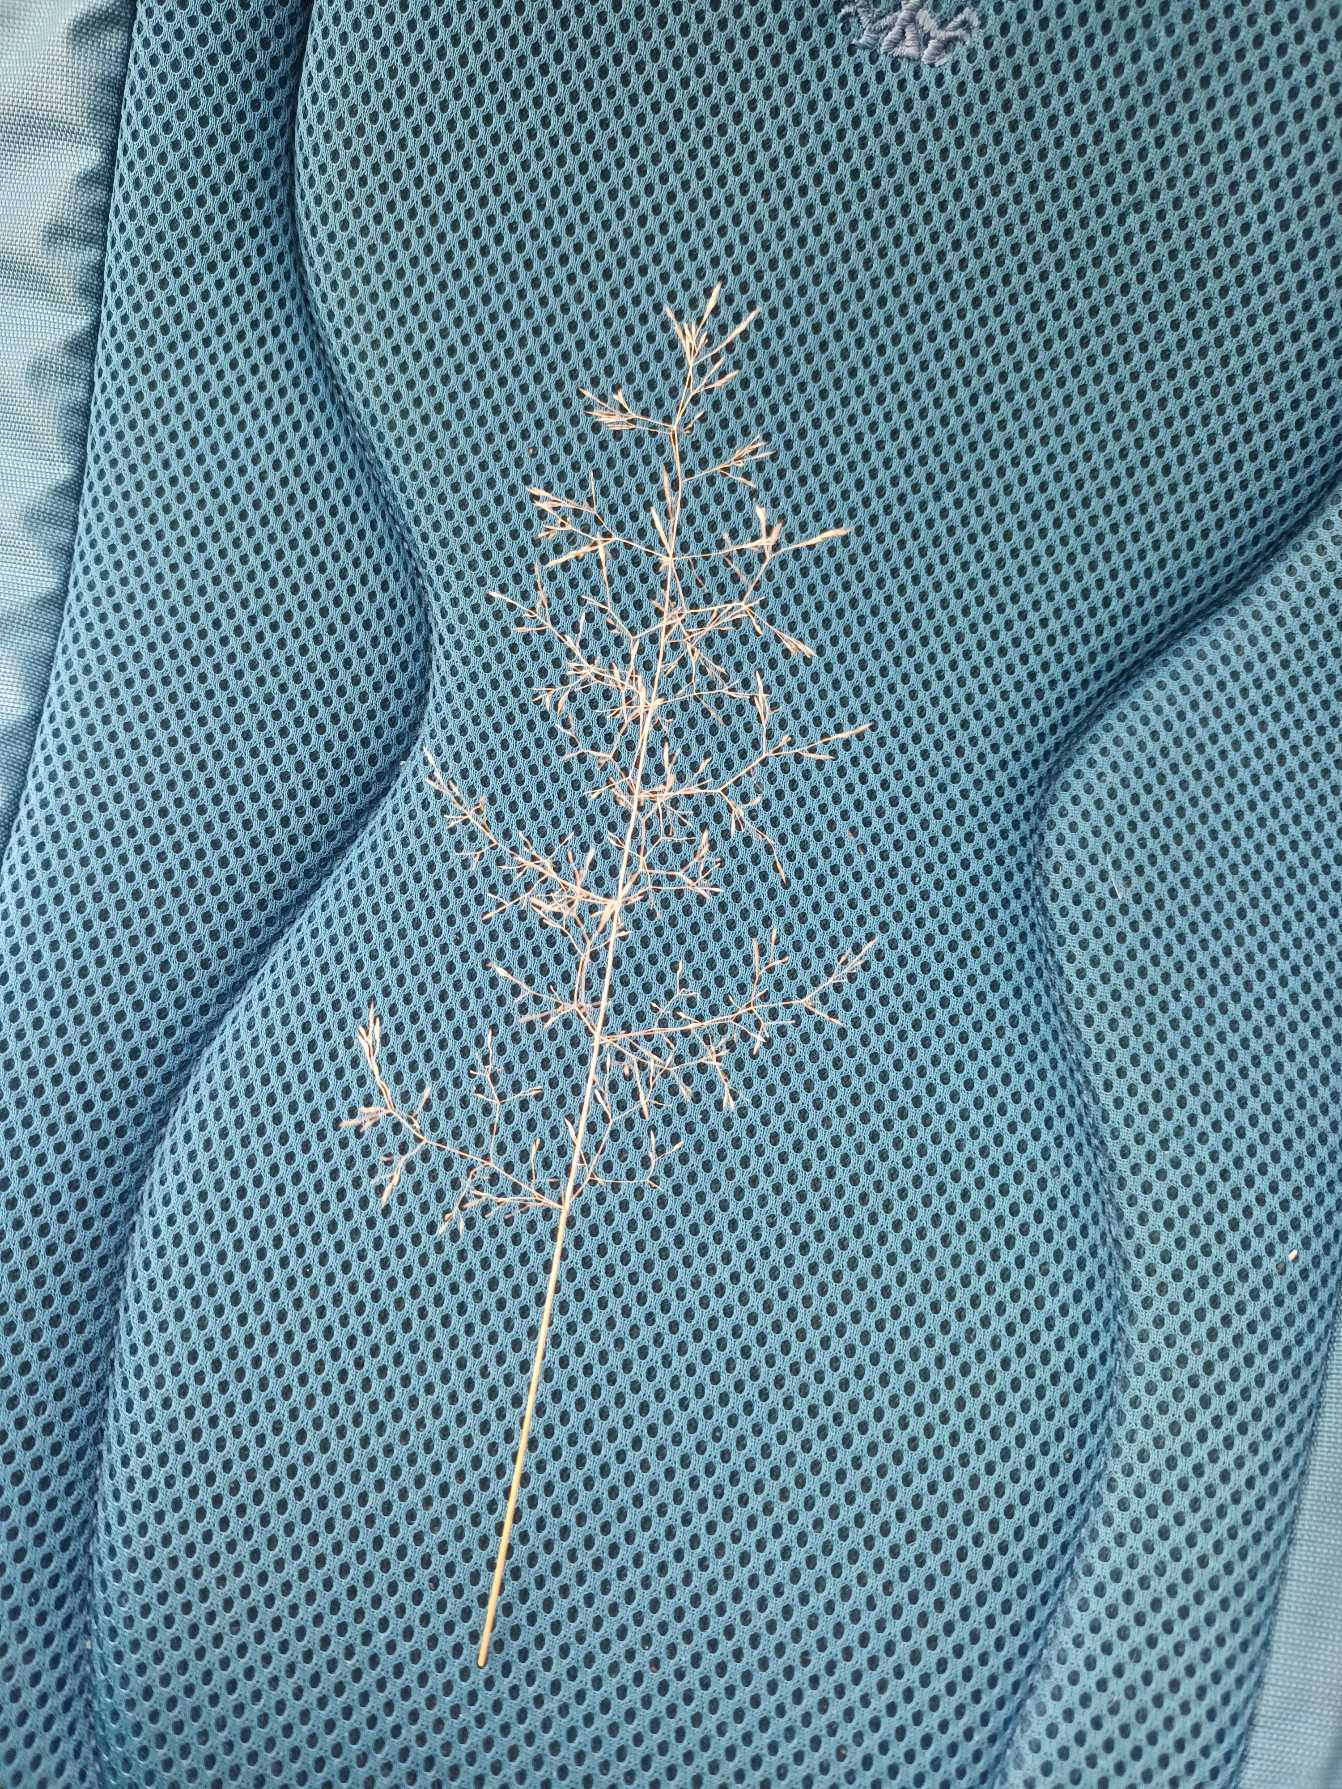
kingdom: Plantae
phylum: Tracheophyta
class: Liliopsida
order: Poales
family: Poaceae
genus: Agrostis
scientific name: Agrostis capillaris
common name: Almindelig hvene
